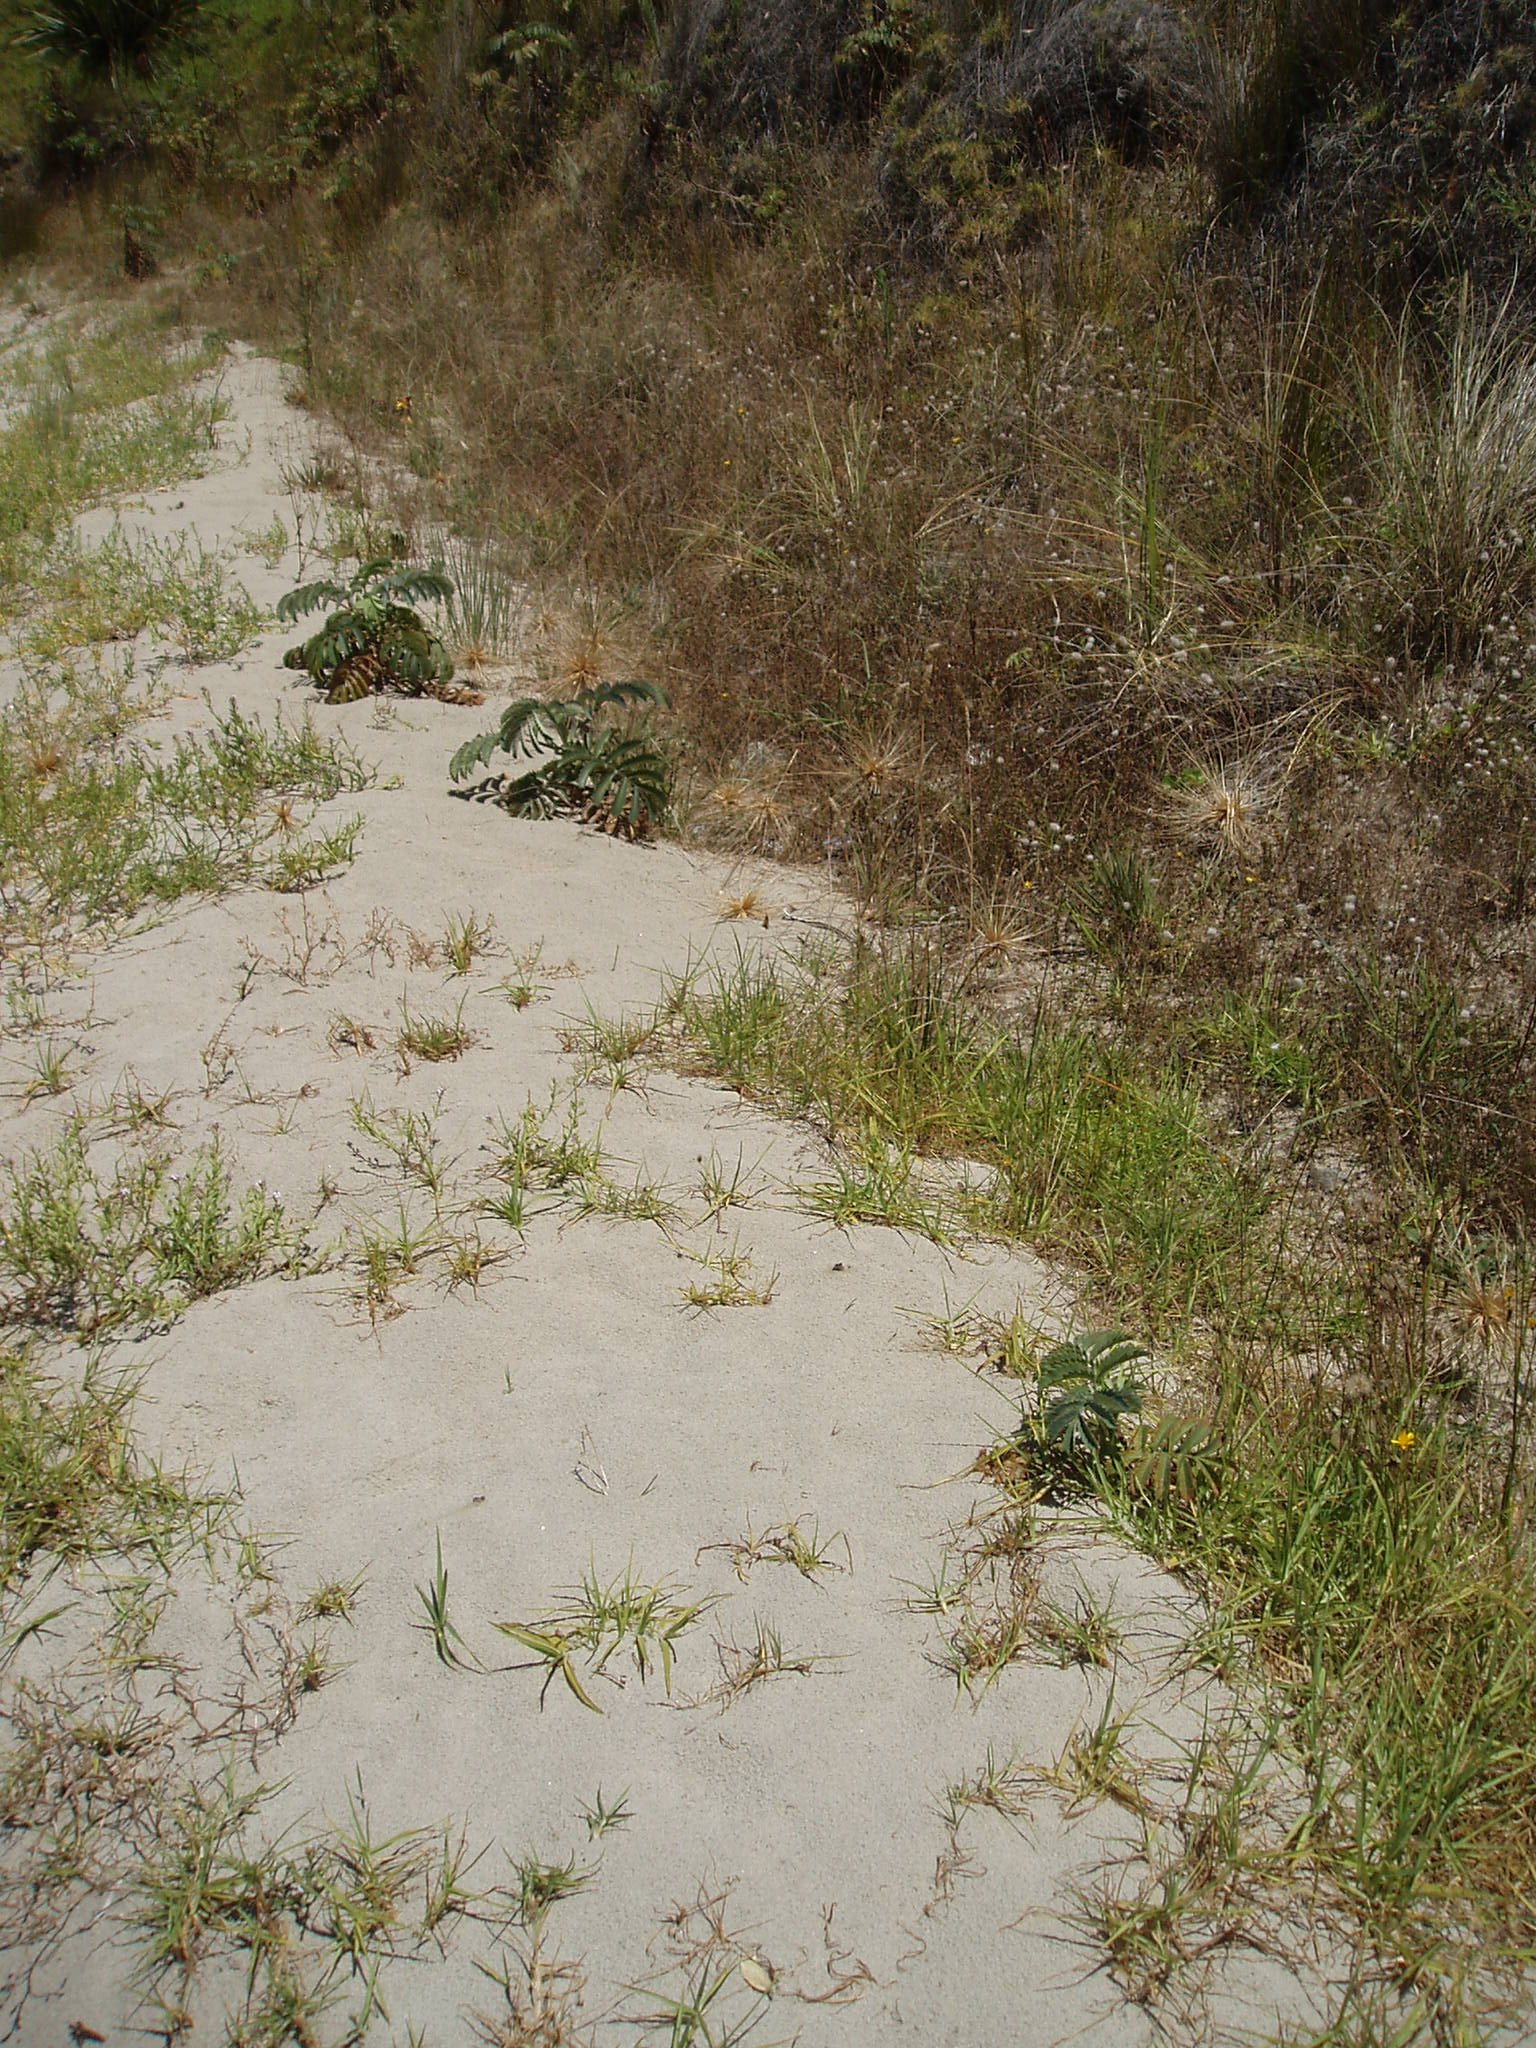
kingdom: Plantae
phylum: Tracheophyta
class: Magnoliopsida
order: Geraniales
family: Melianthaceae
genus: Melianthus
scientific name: Melianthus major
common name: Honey-flower
